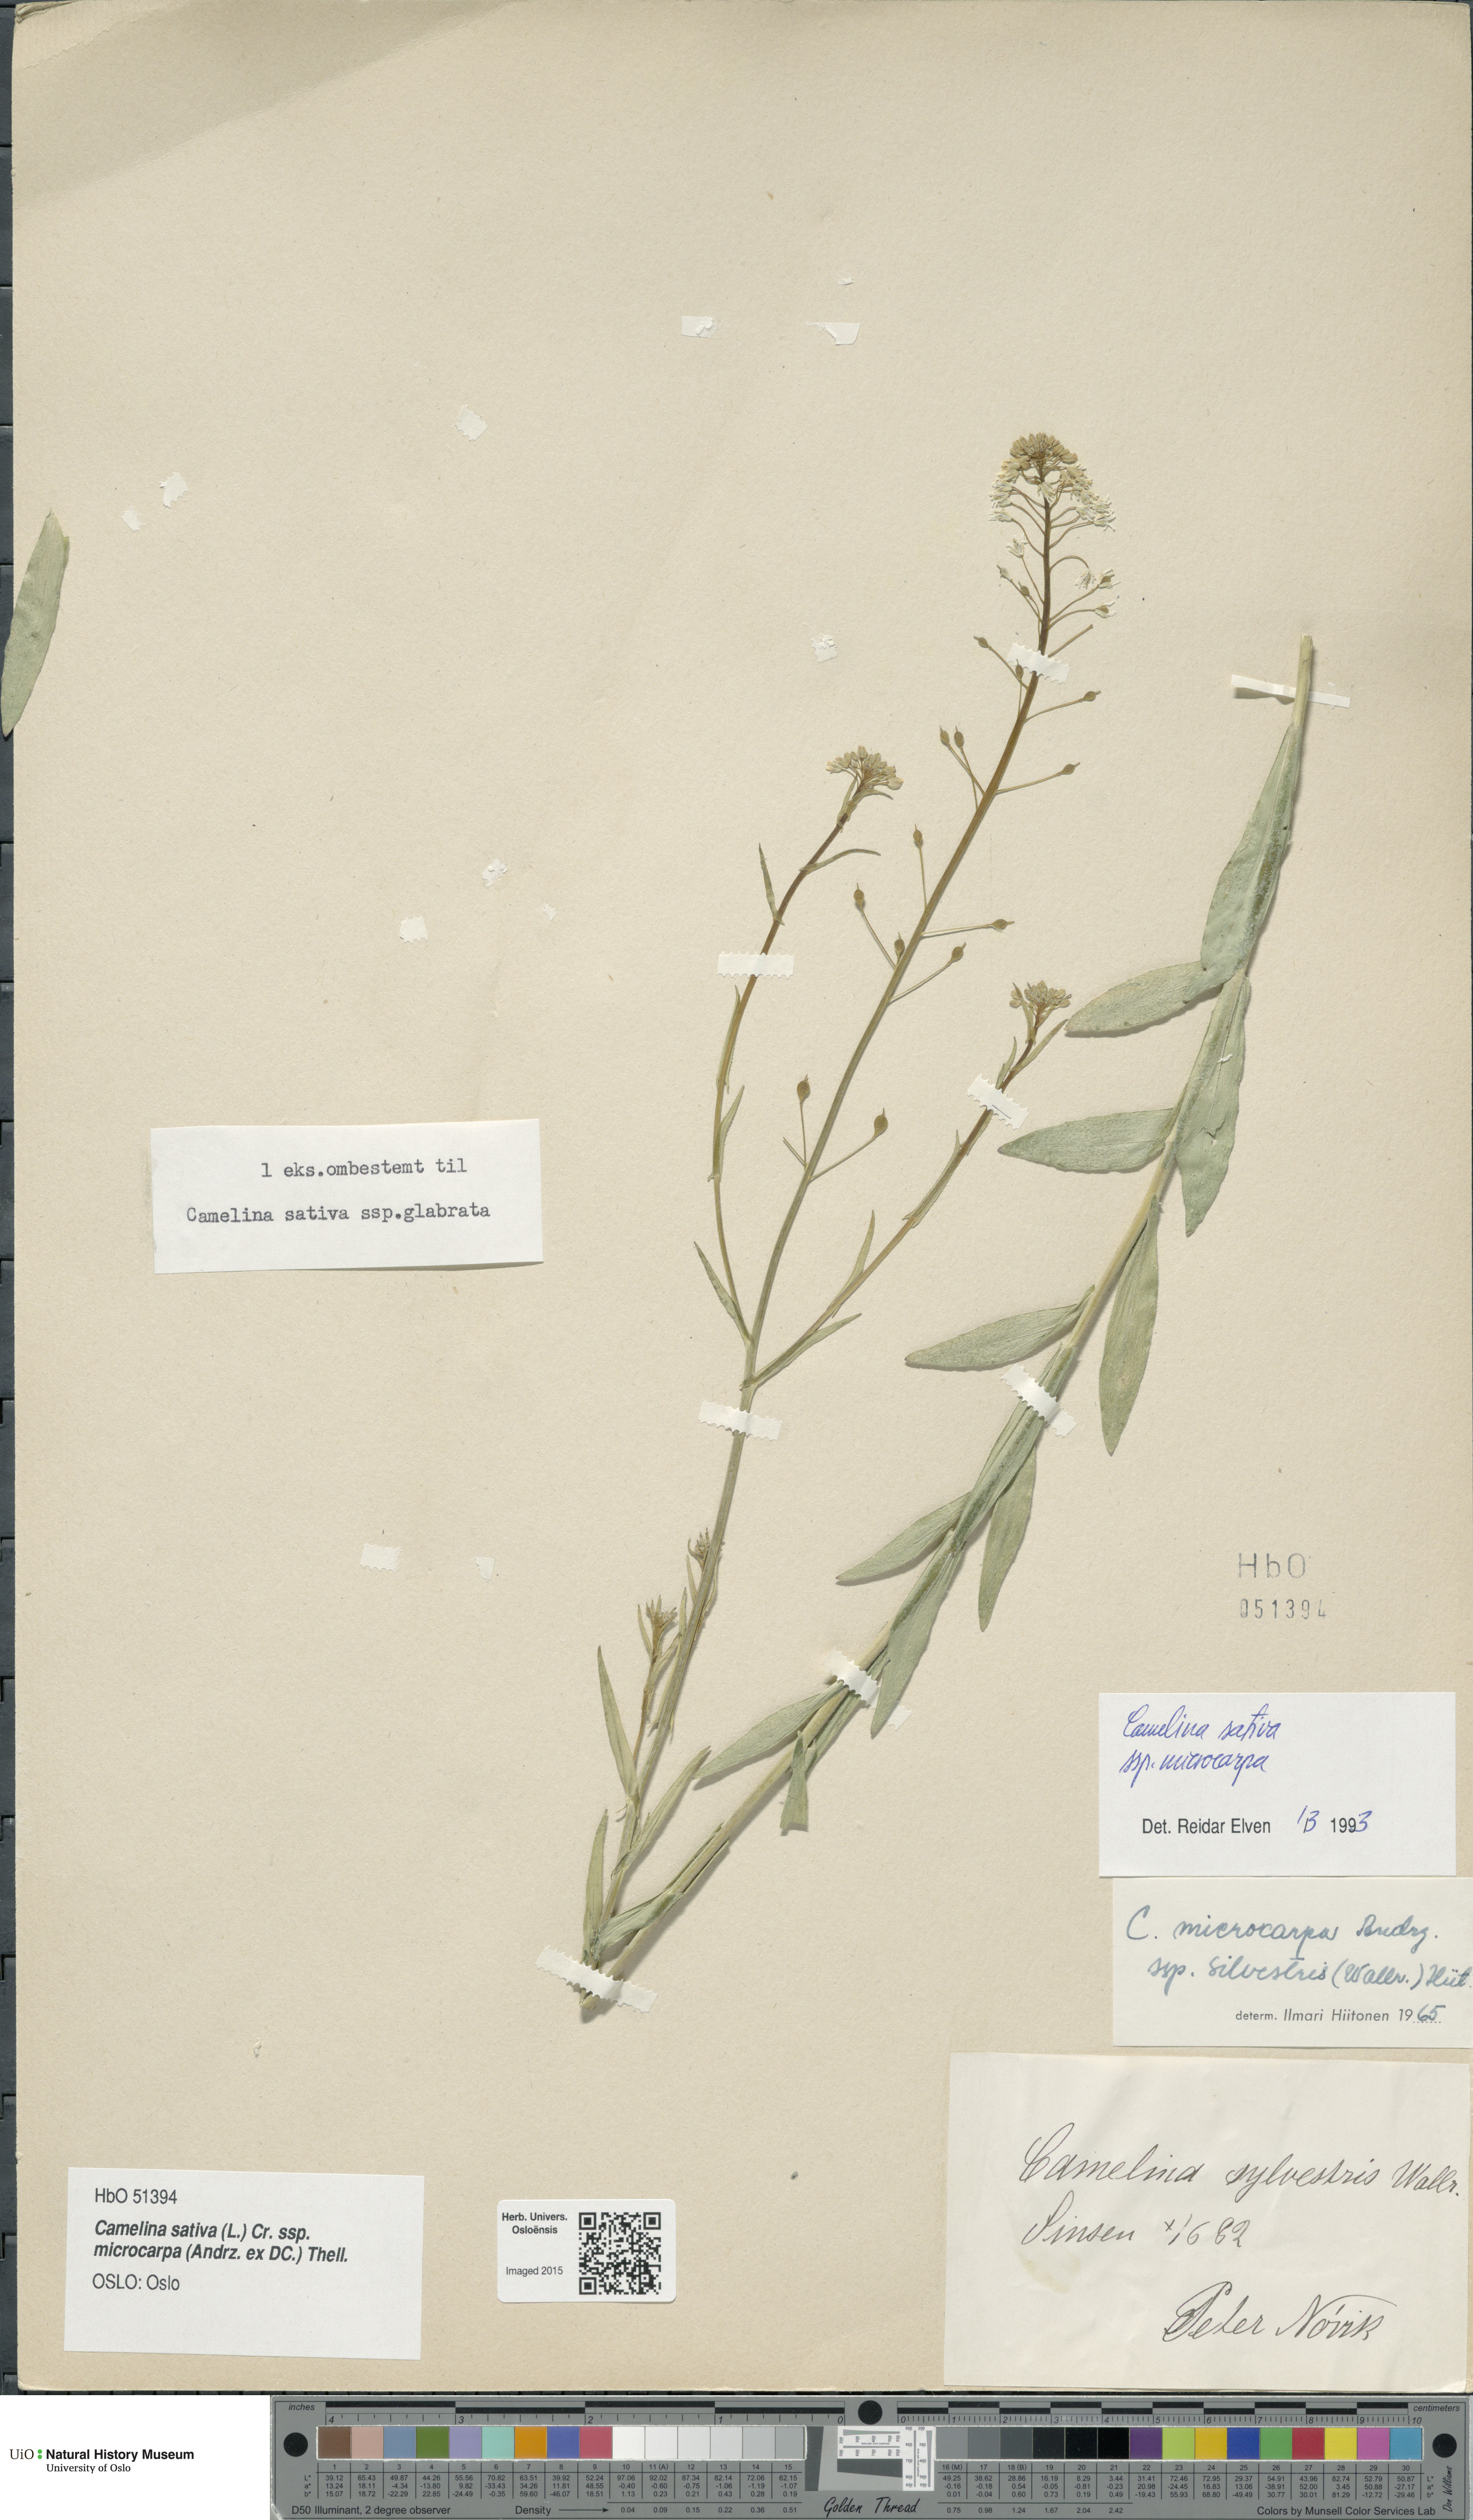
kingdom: Plantae
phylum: Tracheophyta
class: Magnoliopsida
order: Brassicales
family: Brassicaceae
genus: Camelina
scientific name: Camelina sativa
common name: Gold-of-pleasure
